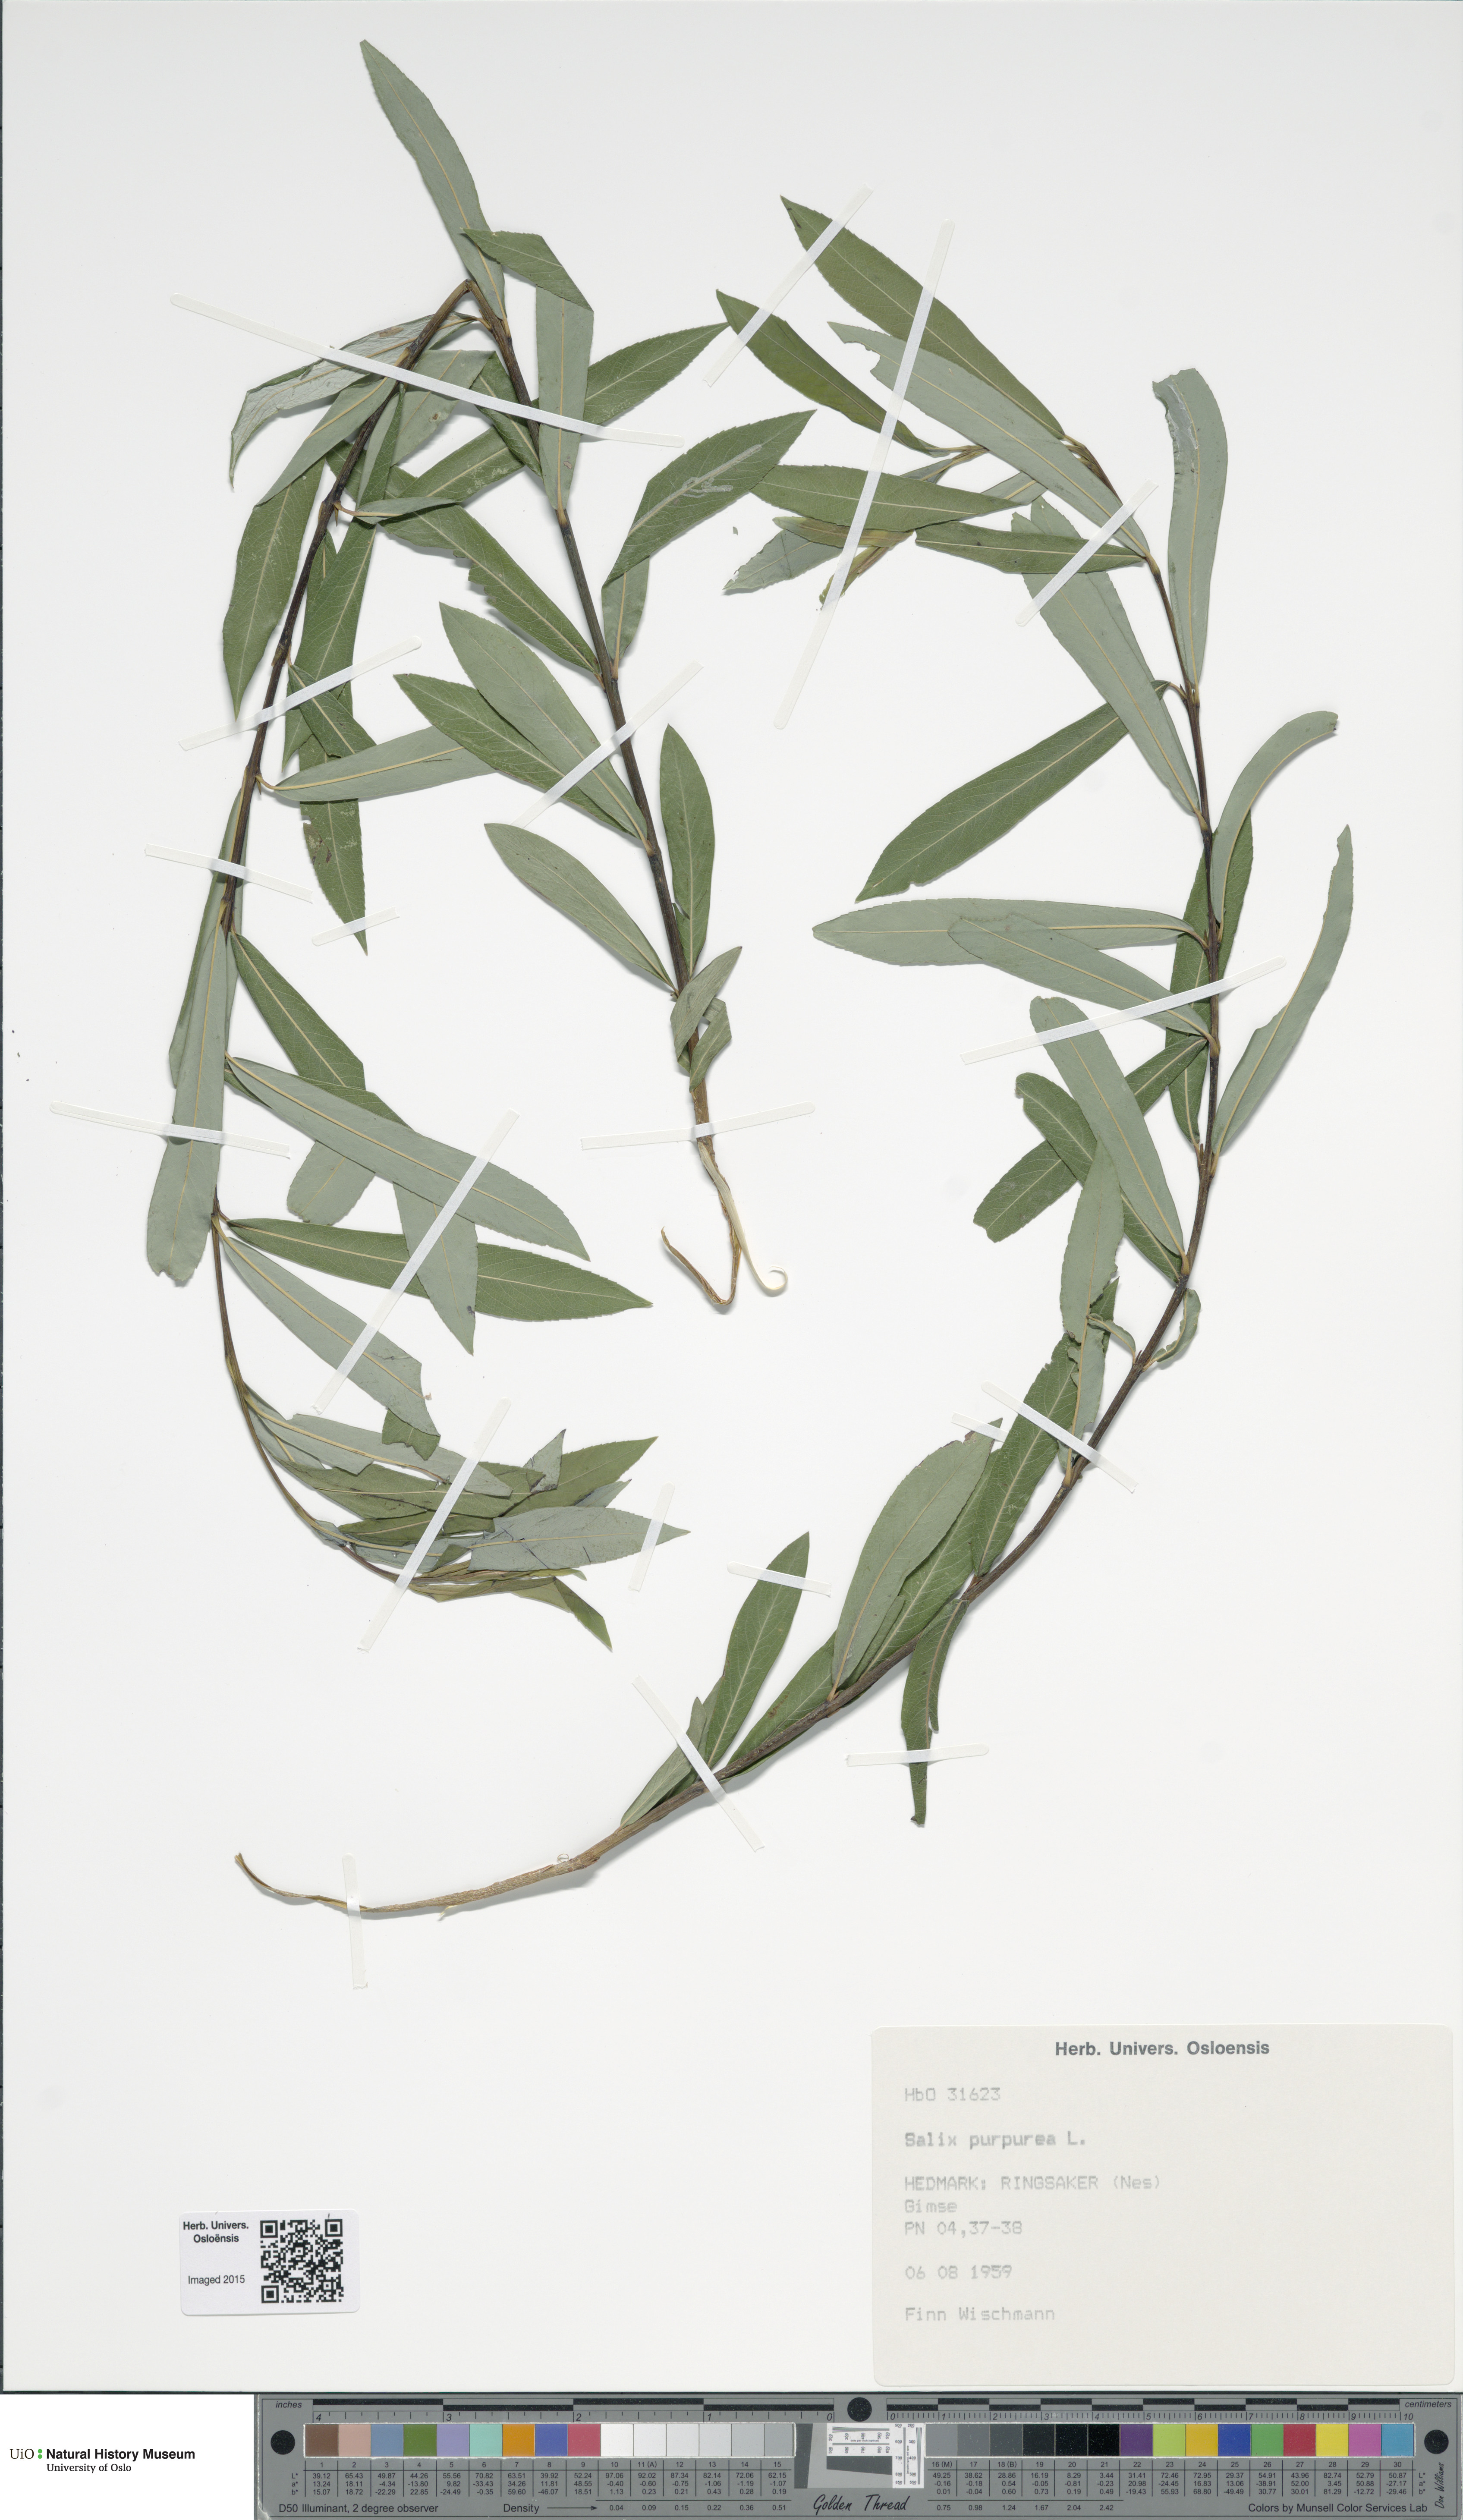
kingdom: Plantae
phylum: Tracheophyta
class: Magnoliopsida
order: Malpighiales
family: Salicaceae
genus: Salix
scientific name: Salix purpurea
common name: Purple willow
